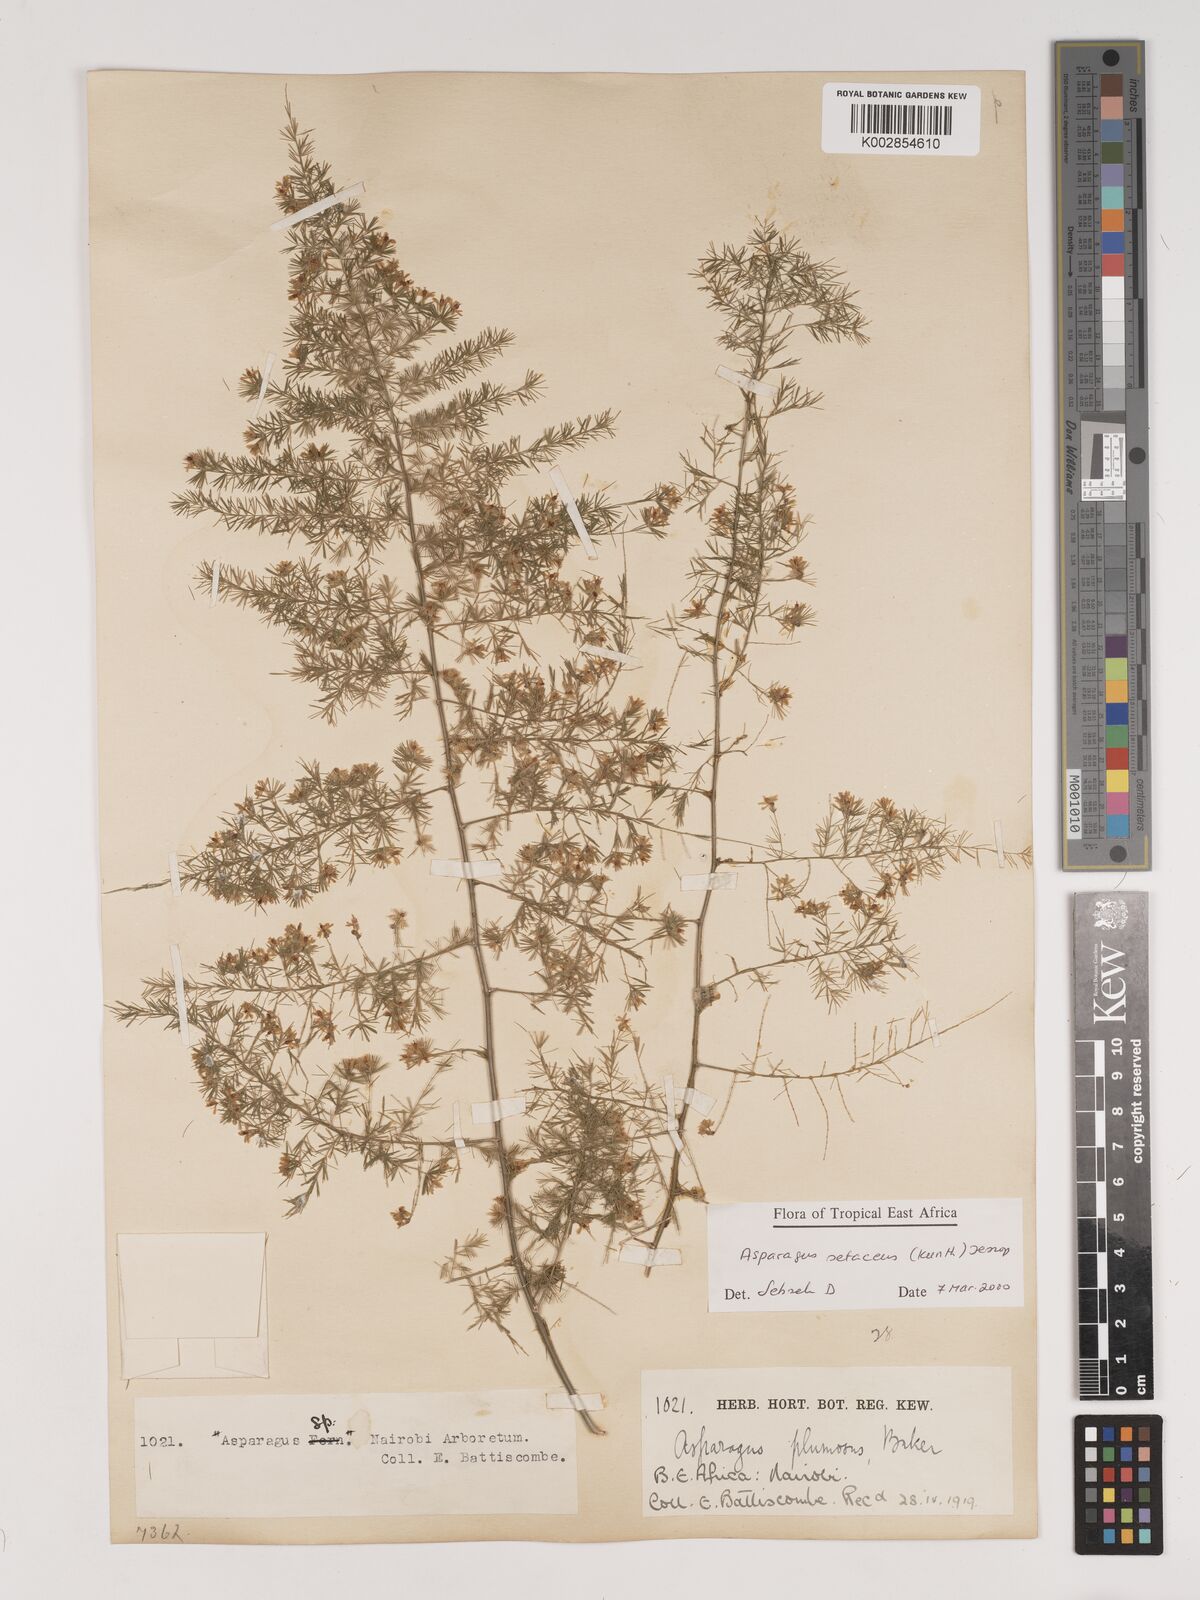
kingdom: Plantae
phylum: Tracheophyta
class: Liliopsida
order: Asparagales
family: Asparagaceae
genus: Asparagus
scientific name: Asparagus setaceus
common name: Common asparagus fern
